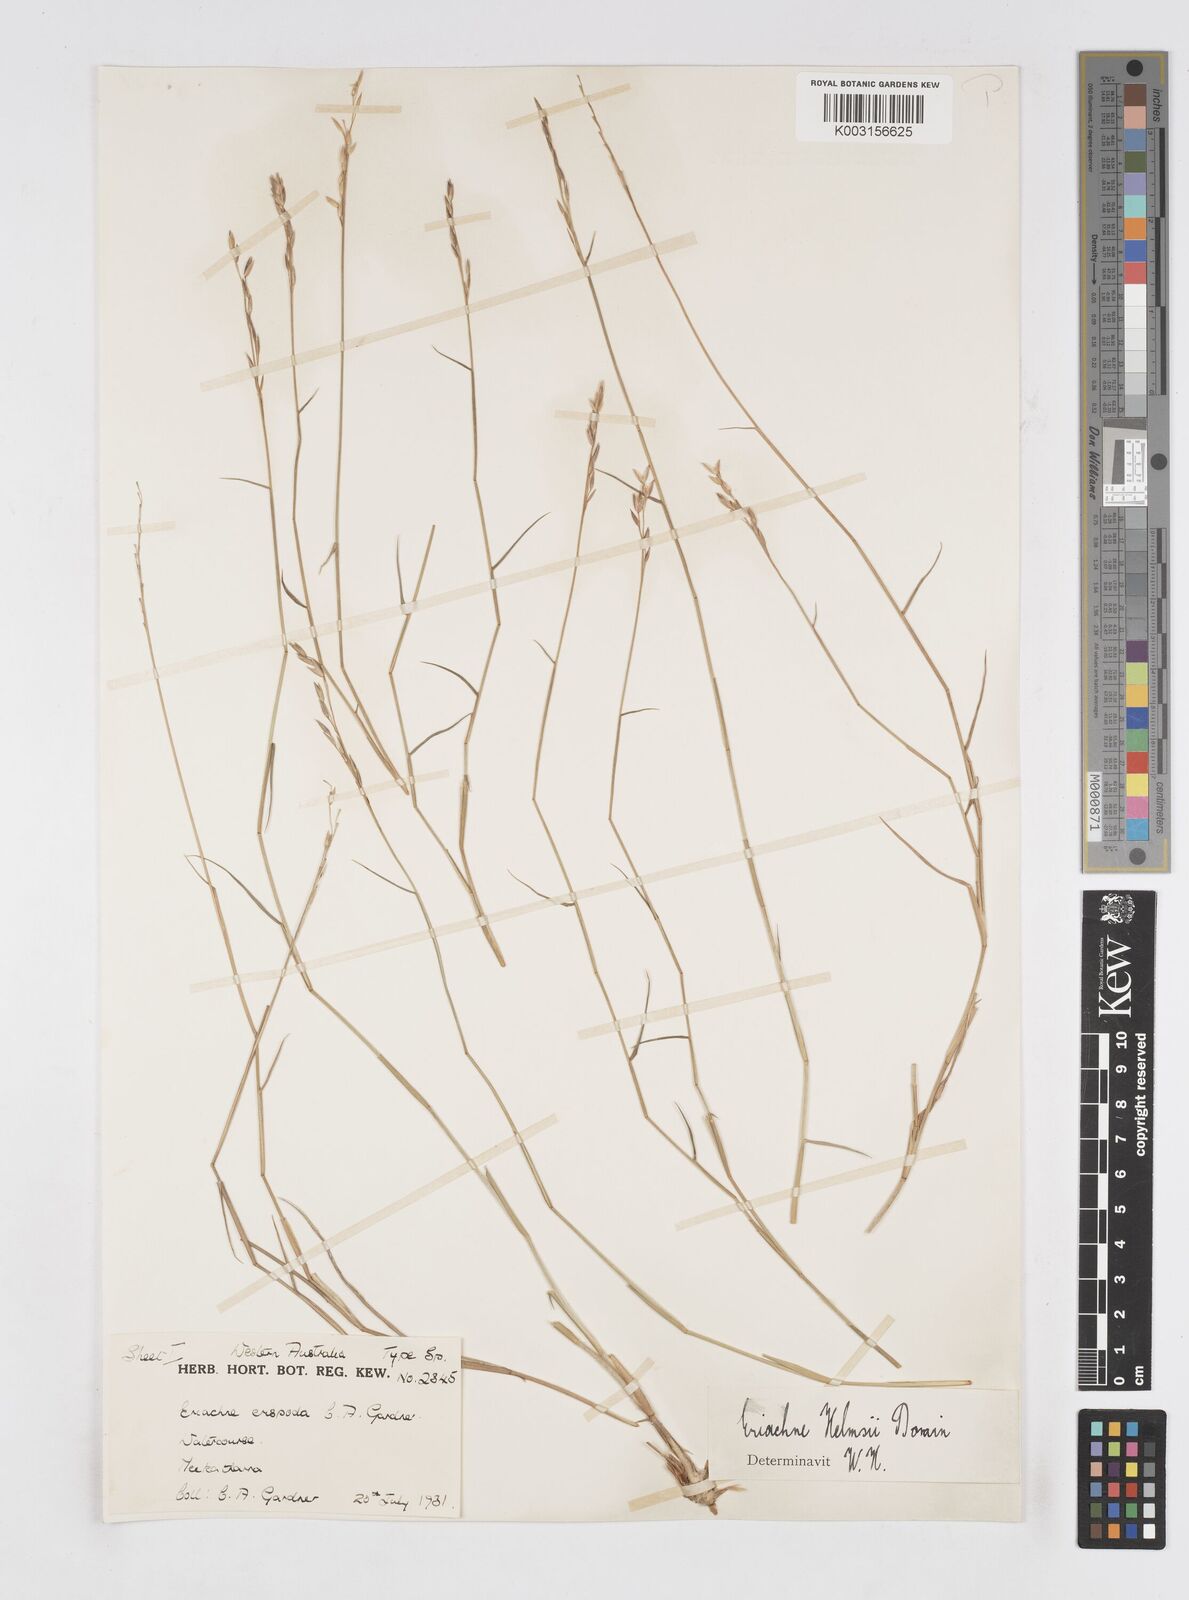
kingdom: Plantae
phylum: Tracheophyta
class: Liliopsida
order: Poales
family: Poaceae
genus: Eriachne
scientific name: Eriachne helmsii
